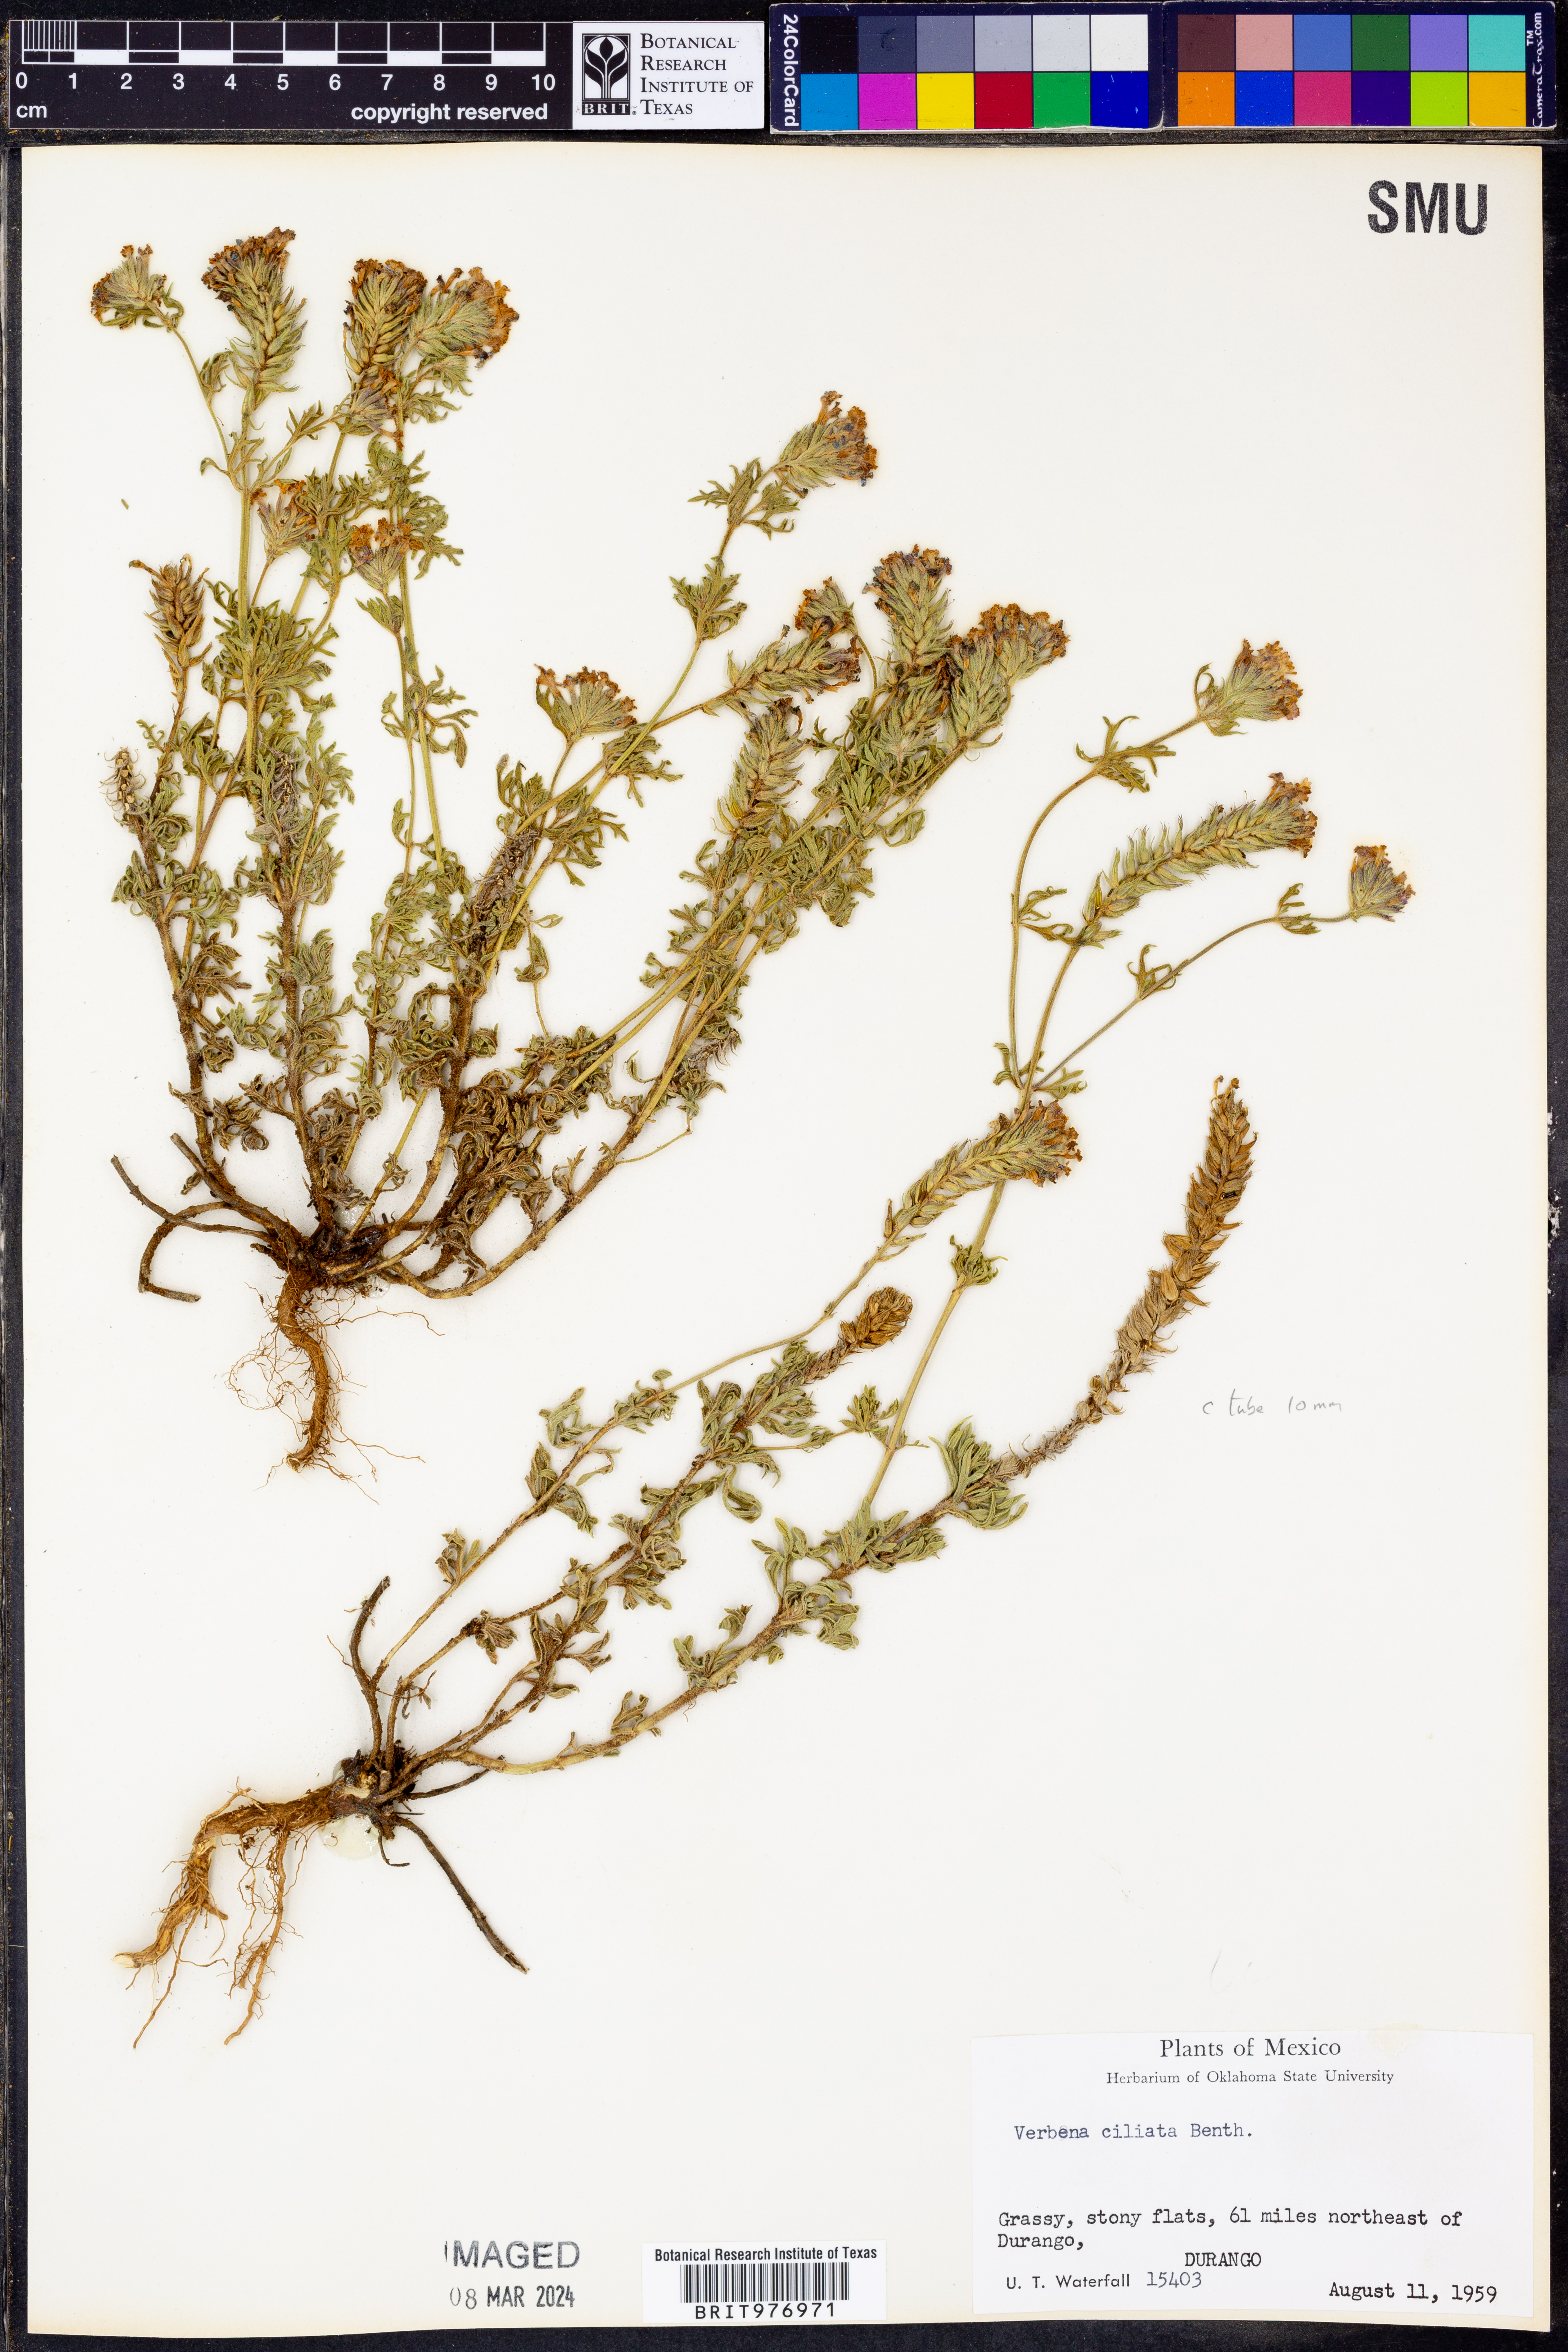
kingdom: Plantae
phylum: Tracheophyta
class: Magnoliopsida
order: Lamiales
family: Verbenaceae
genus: Verbena
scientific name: Verbena
